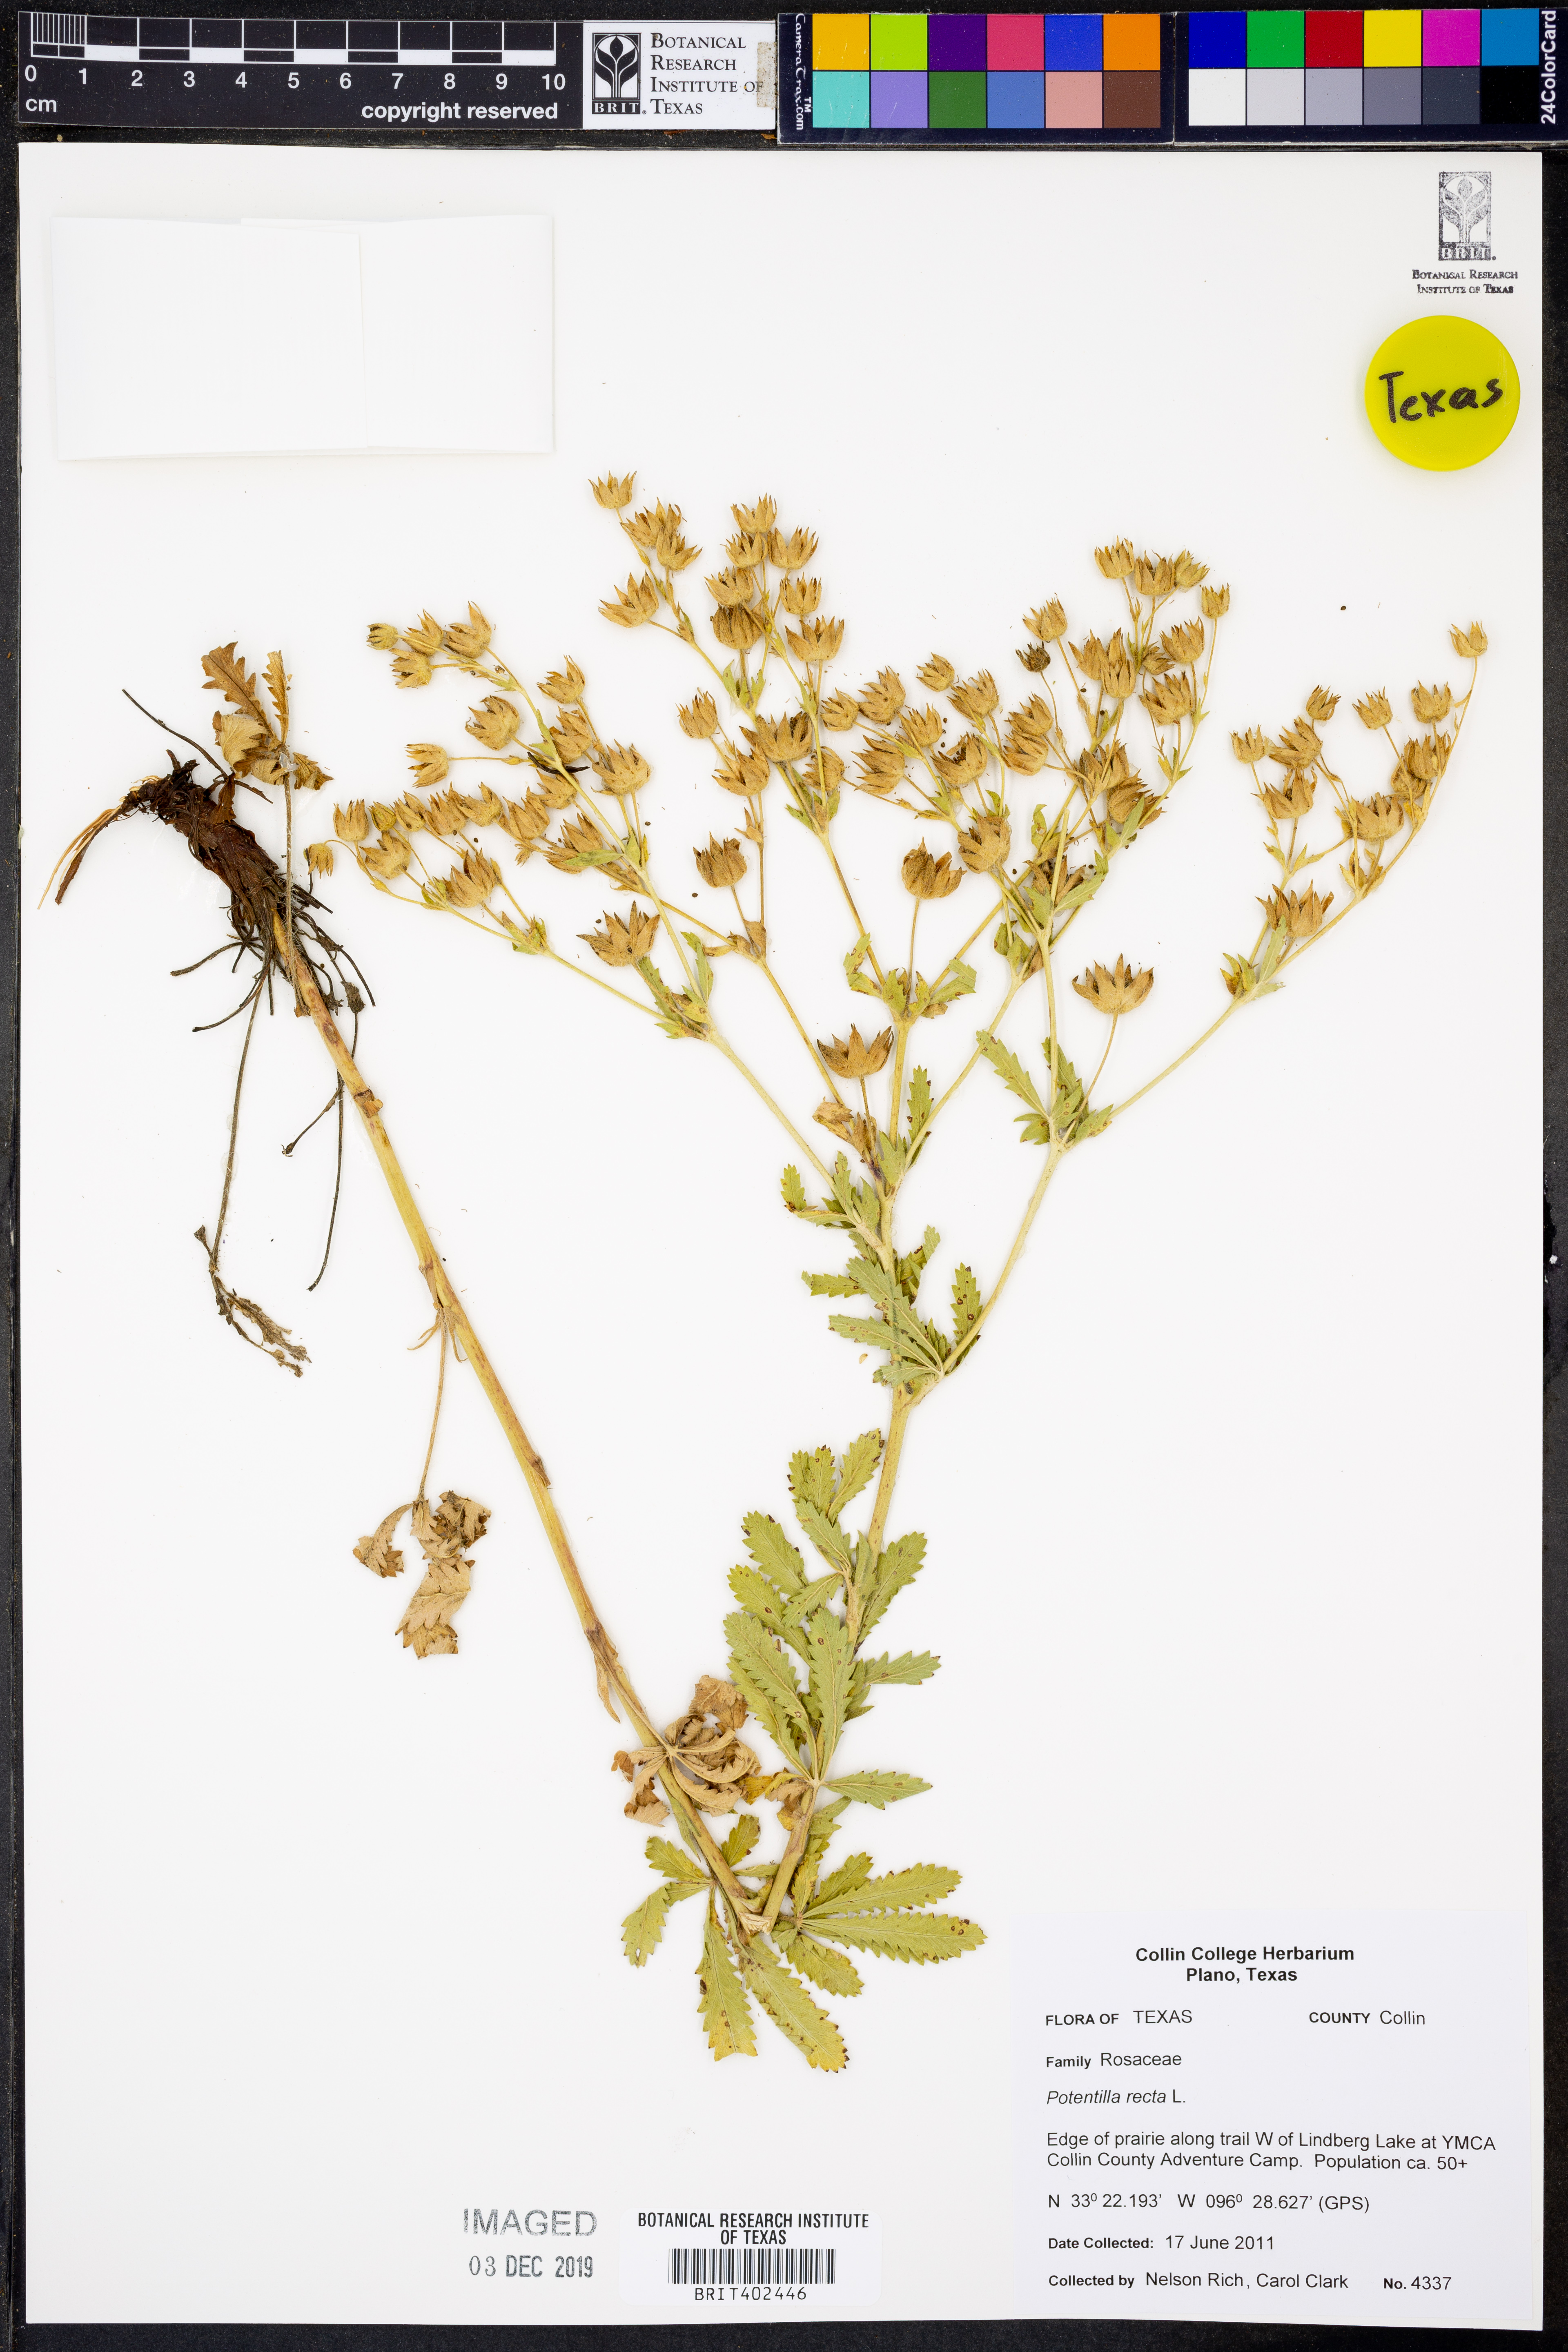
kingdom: Plantae
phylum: Tracheophyta
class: Magnoliopsida
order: Rosales
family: Rosaceae
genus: Potentilla
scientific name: Potentilla recta
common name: Sulphur cinquefoil
